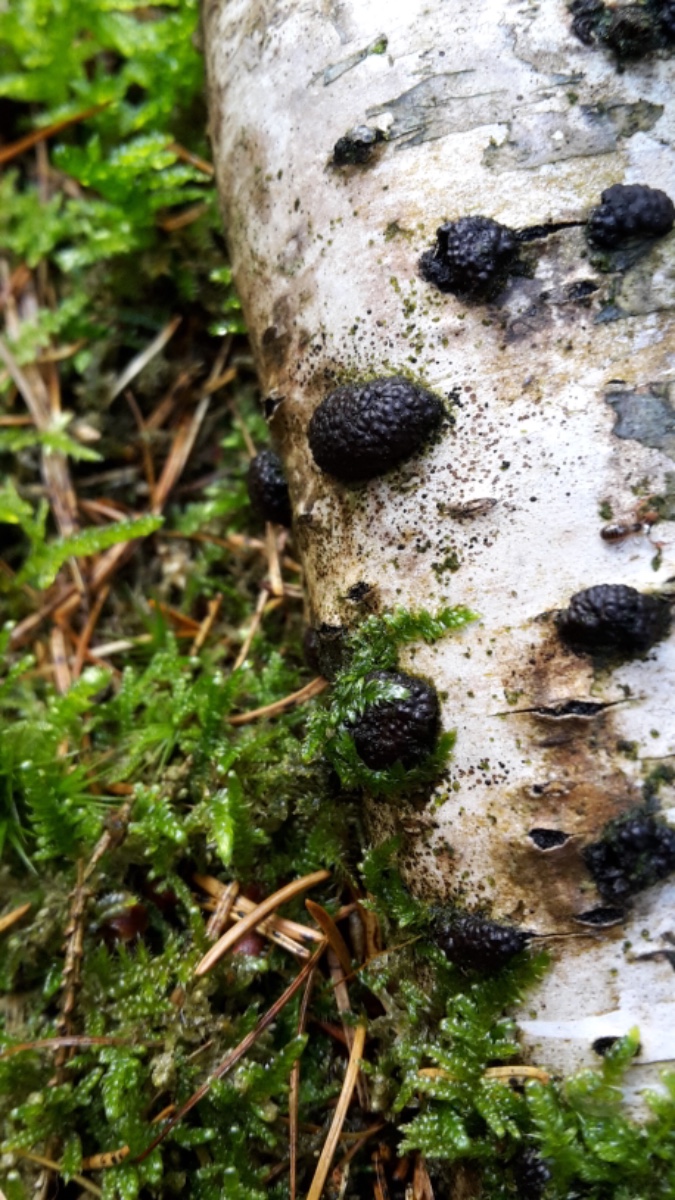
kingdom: Fungi
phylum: Ascomycota
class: Sordariomycetes
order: Xylariales
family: Hypoxylaceae
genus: Jackrogersella
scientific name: Jackrogersella multiformis
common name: foranderlig kulbær
